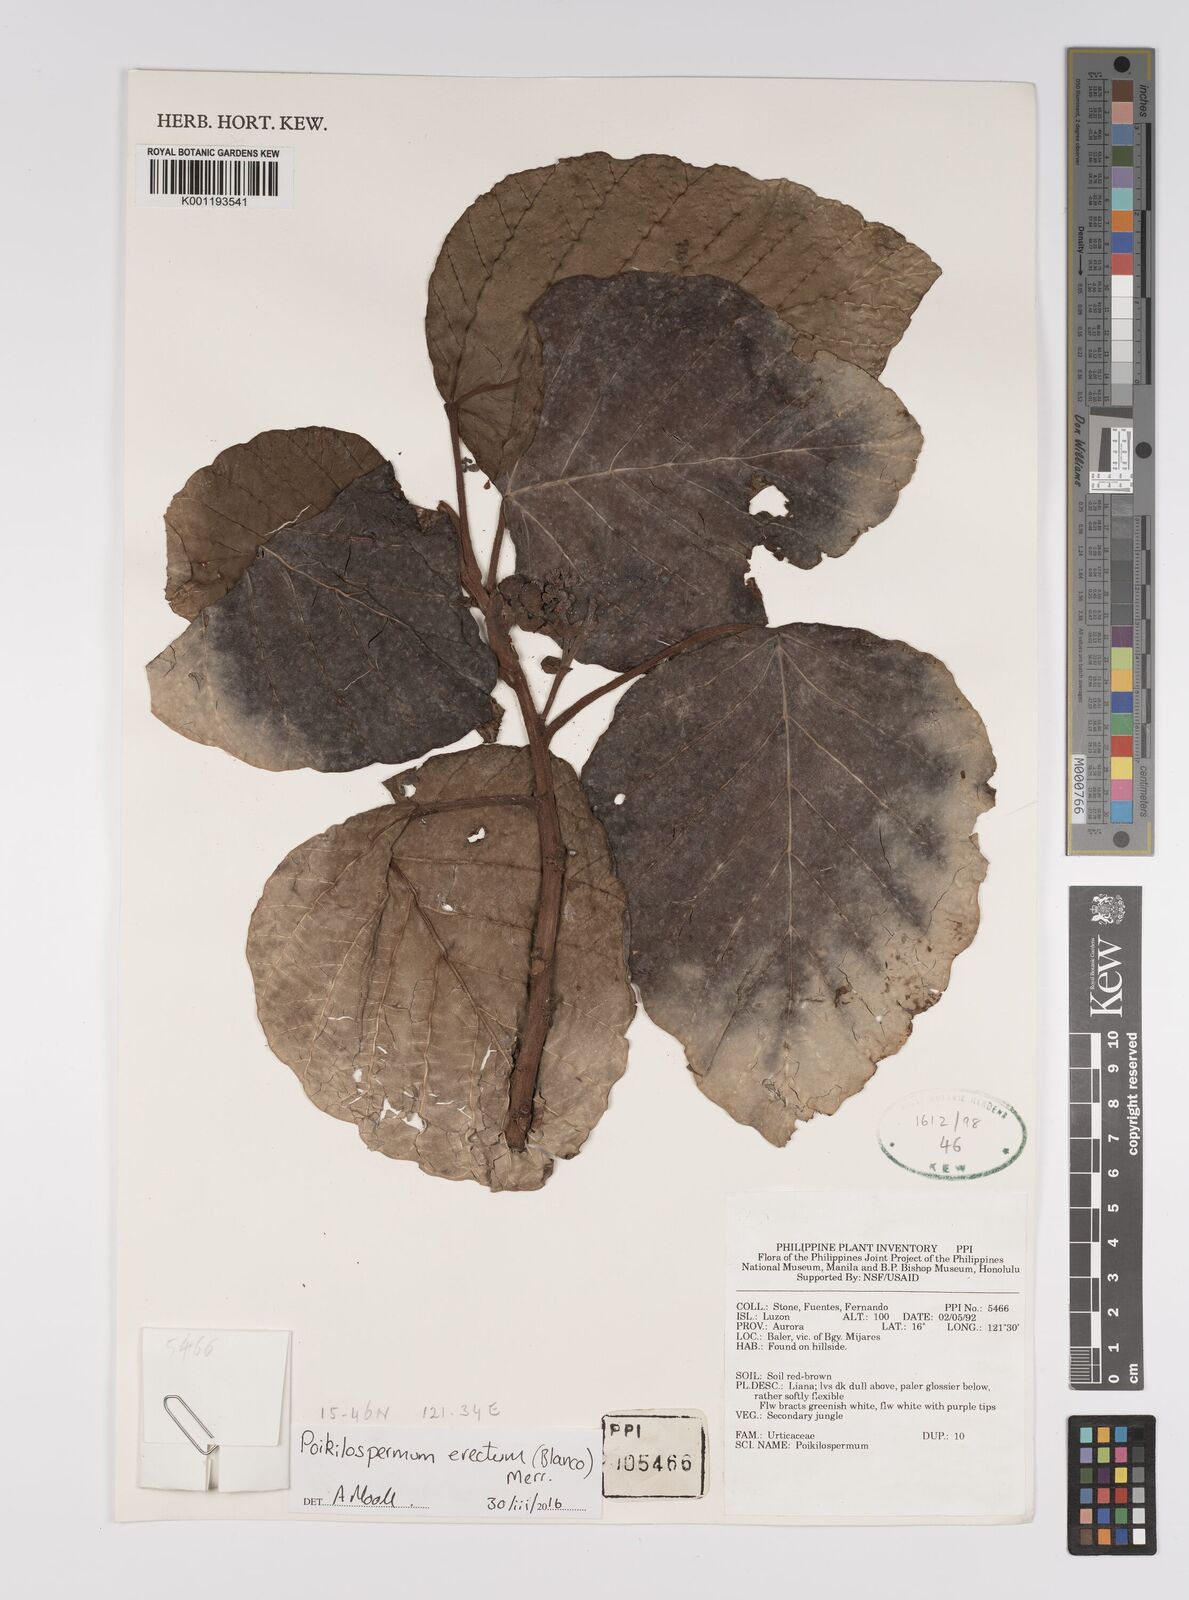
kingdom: Plantae
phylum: Tracheophyta
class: Magnoliopsida
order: Rosales
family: Urticaceae
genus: Poikilospermum
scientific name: Poikilospermum erectum
